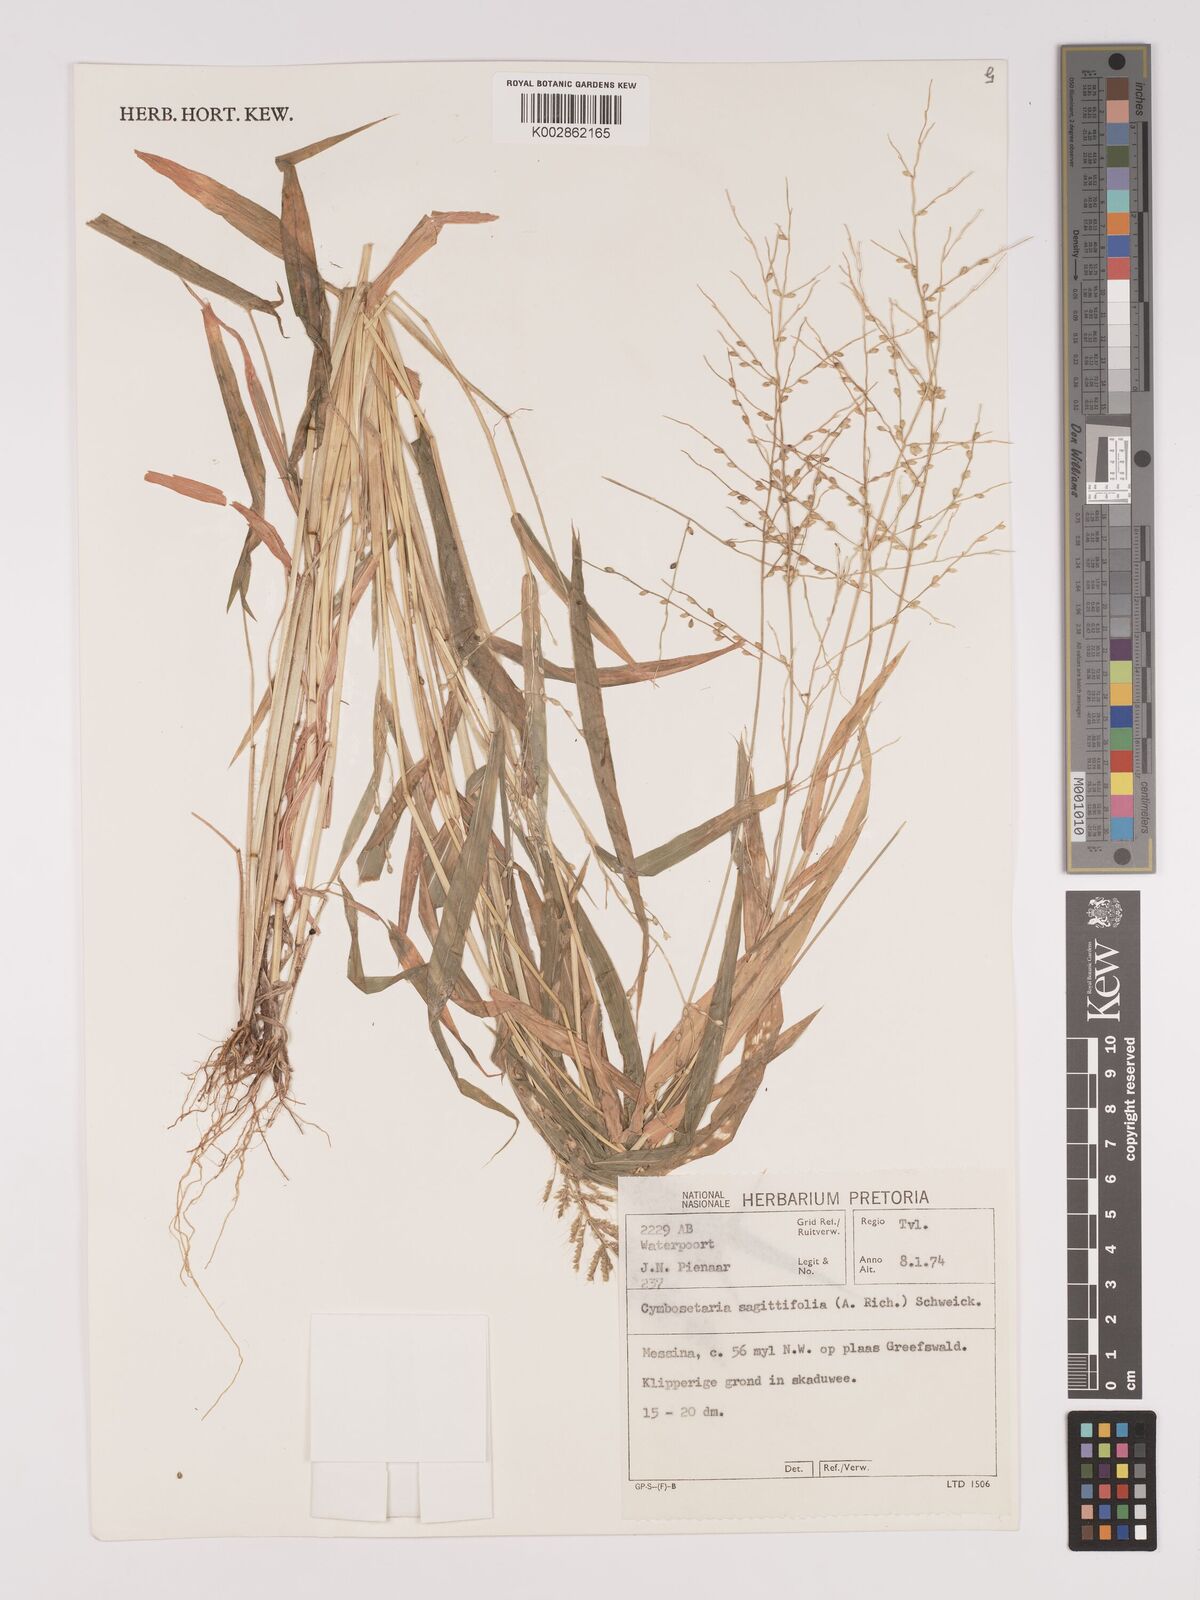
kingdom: Plantae
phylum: Tracheophyta
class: Liliopsida
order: Poales
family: Poaceae
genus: Setaria
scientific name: Setaria sagittifolia
